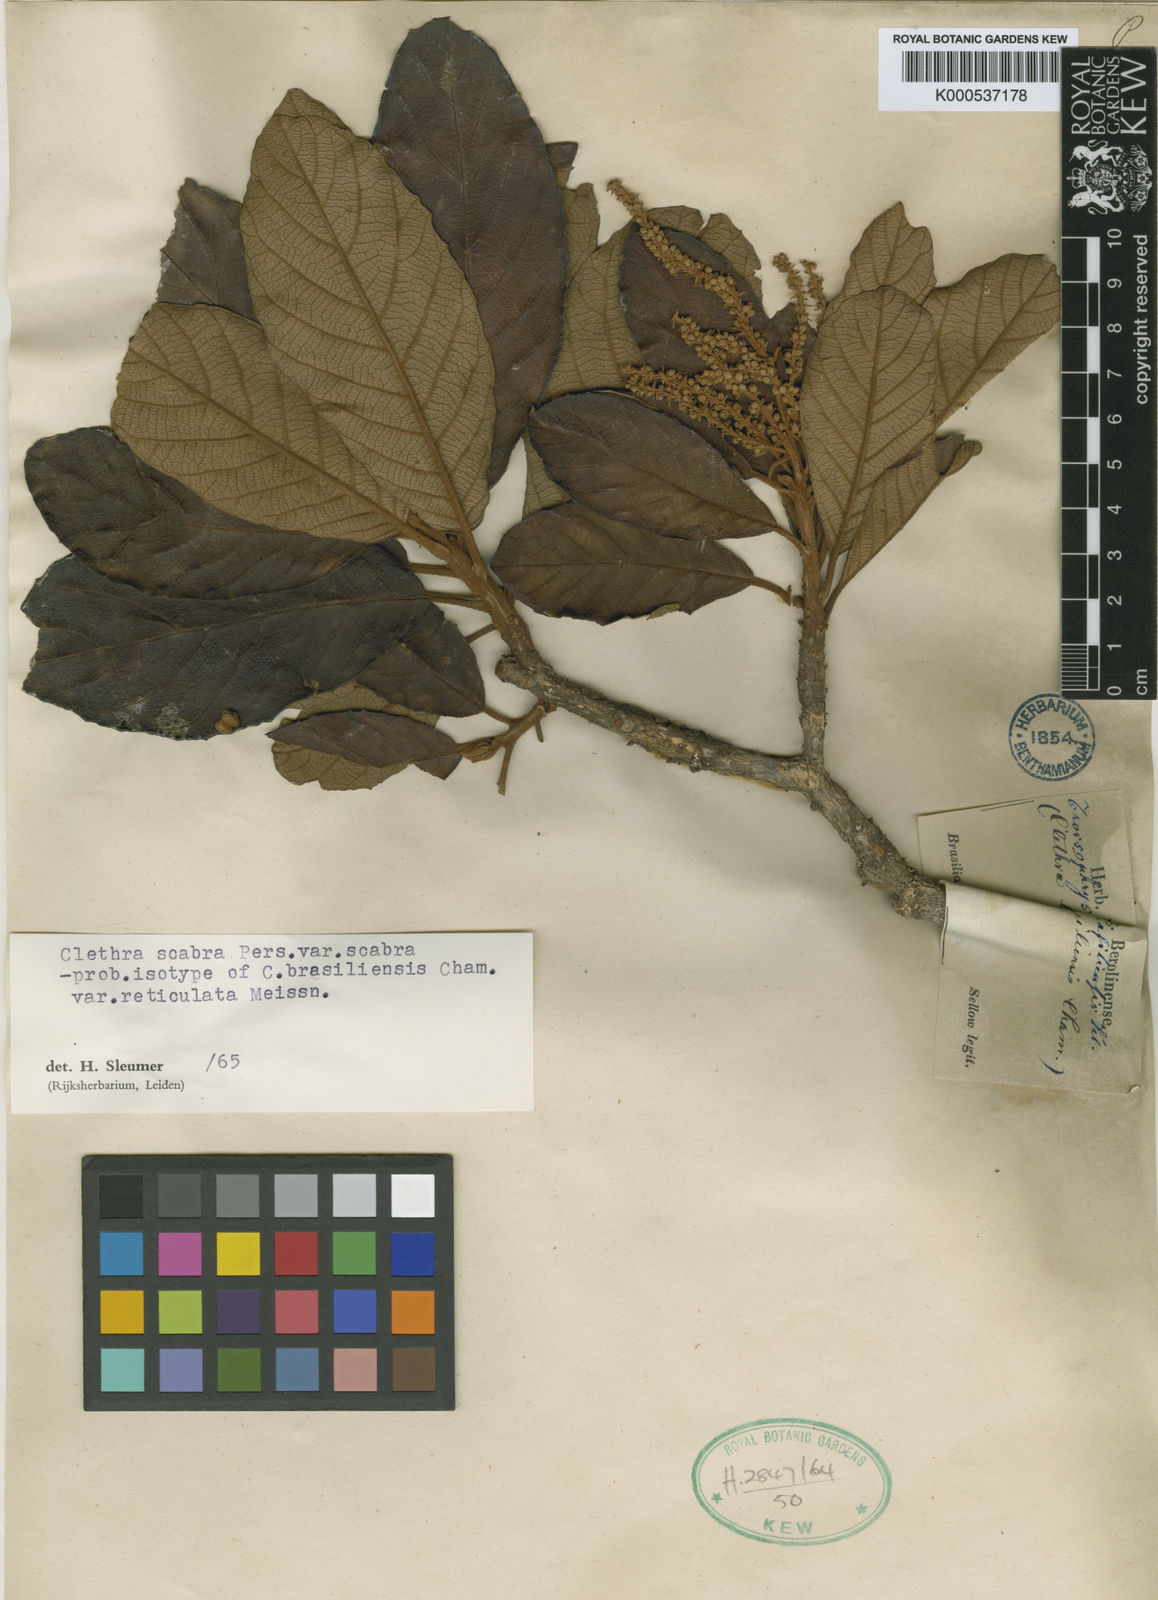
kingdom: Plantae
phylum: Tracheophyta
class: Magnoliopsida
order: Ericales
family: Clethraceae
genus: Clethra
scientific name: Clethra scabra
